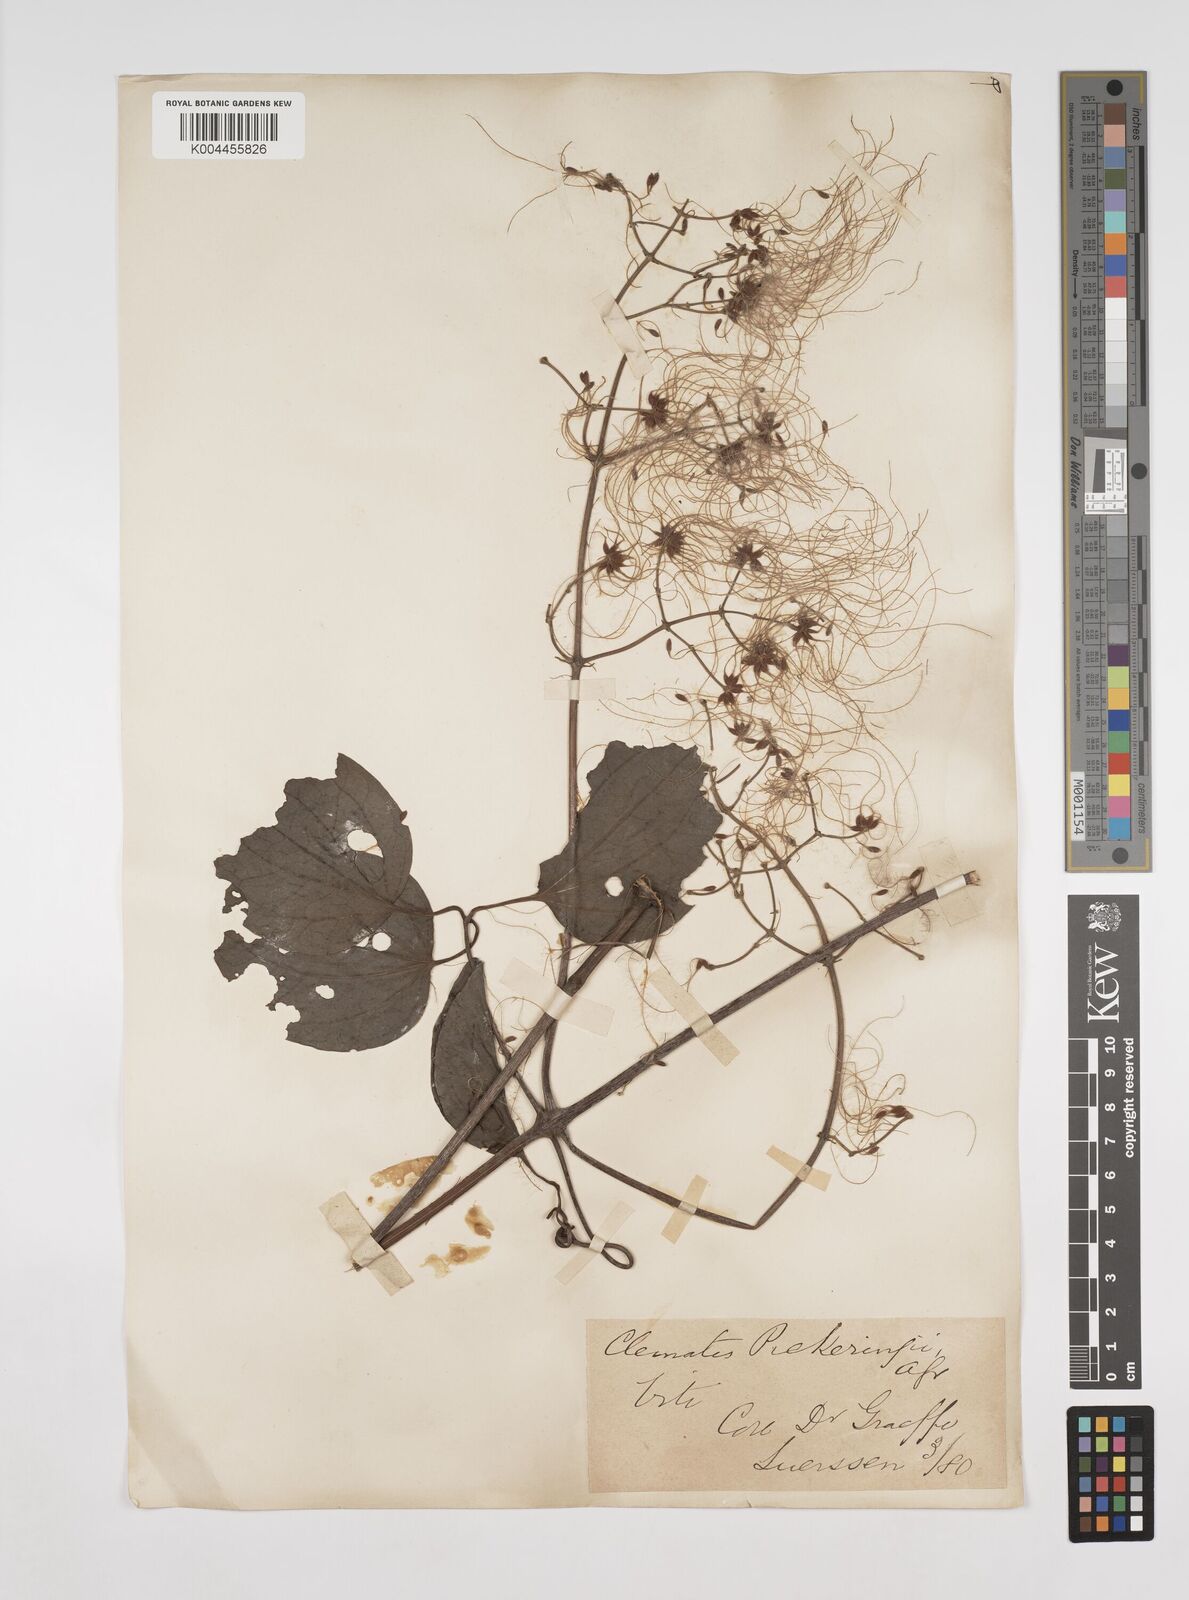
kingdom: Plantae
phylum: Tracheophyta
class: Magnoliopsida
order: Ranunculales
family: Ranunculaceae
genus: Clematis
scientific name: Clematis pickeringii
